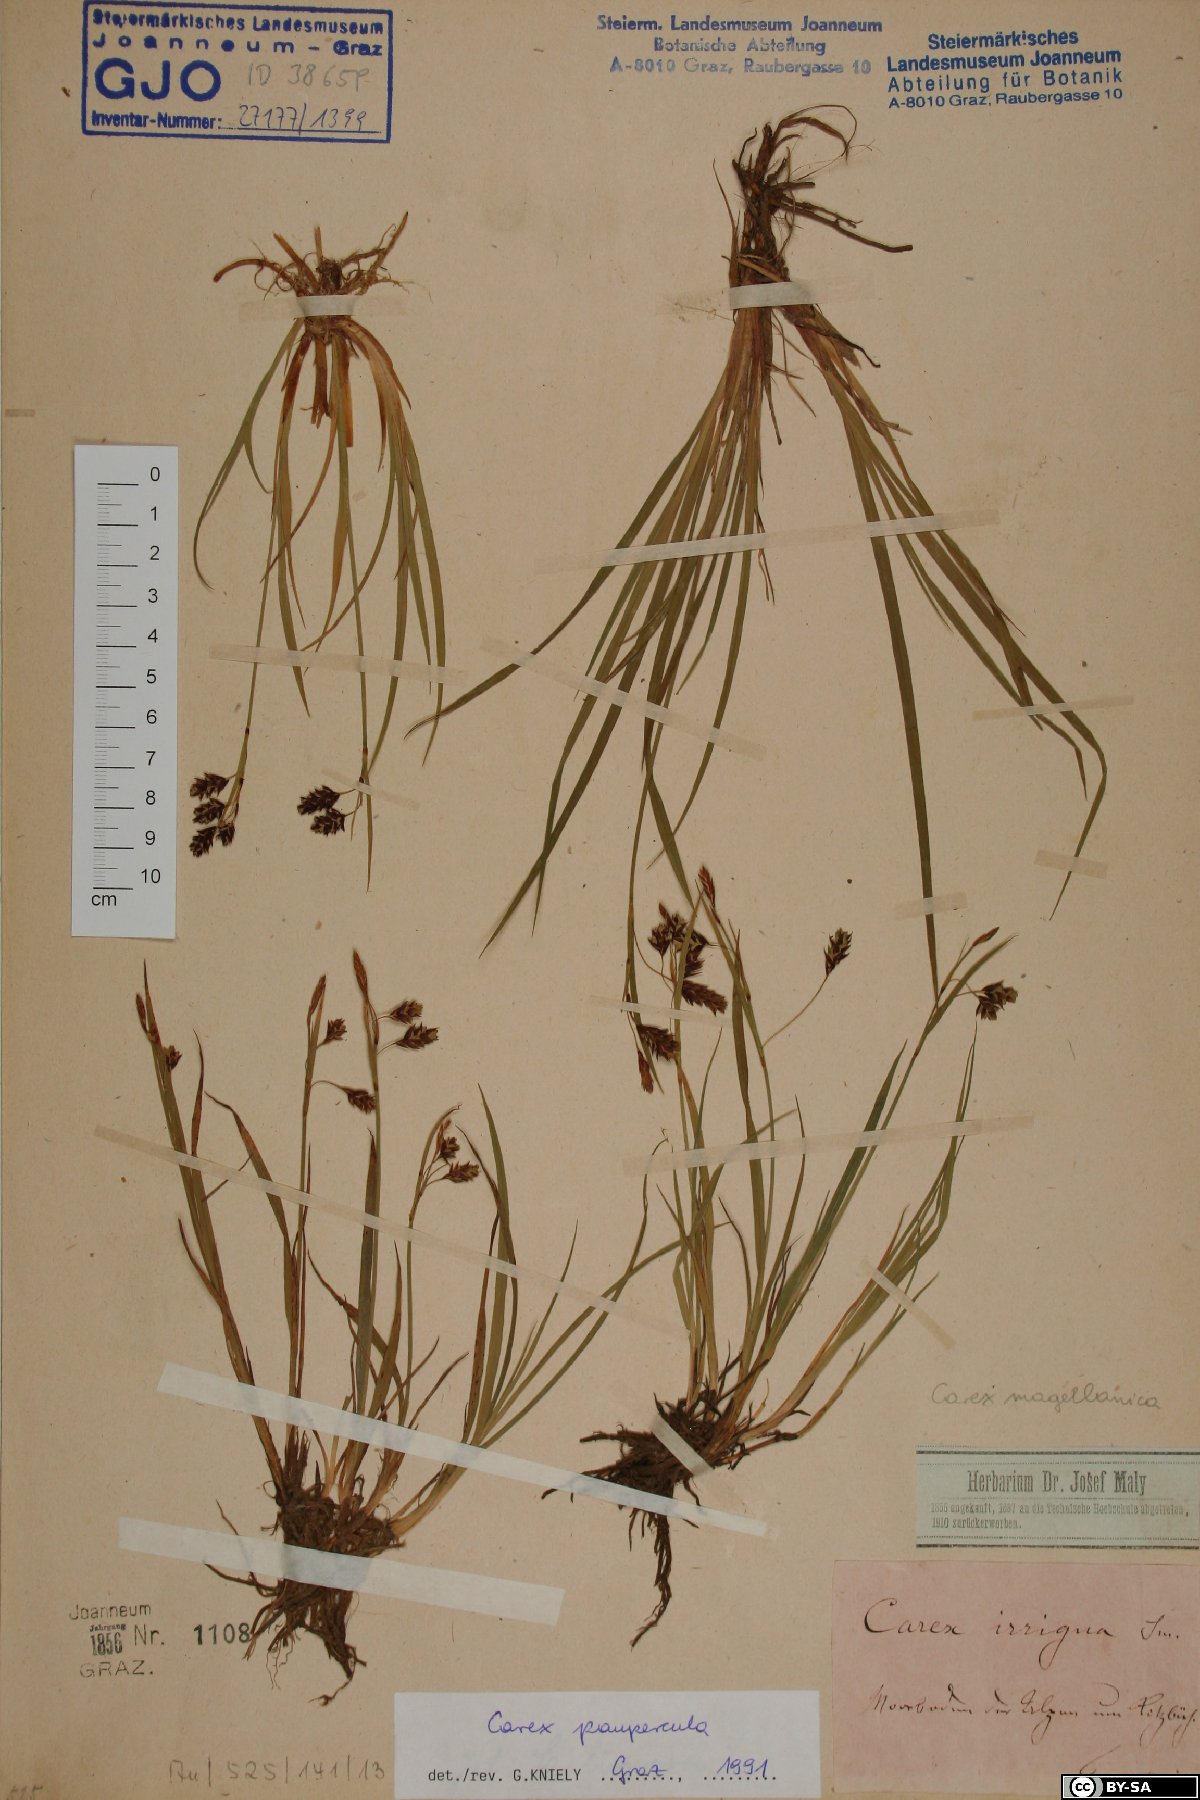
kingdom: Plantae
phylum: Tracheophyta
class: Liliopsida
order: Poales
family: Cyperaceae
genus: Carex
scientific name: Carex magellanica
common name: Bog sedge
